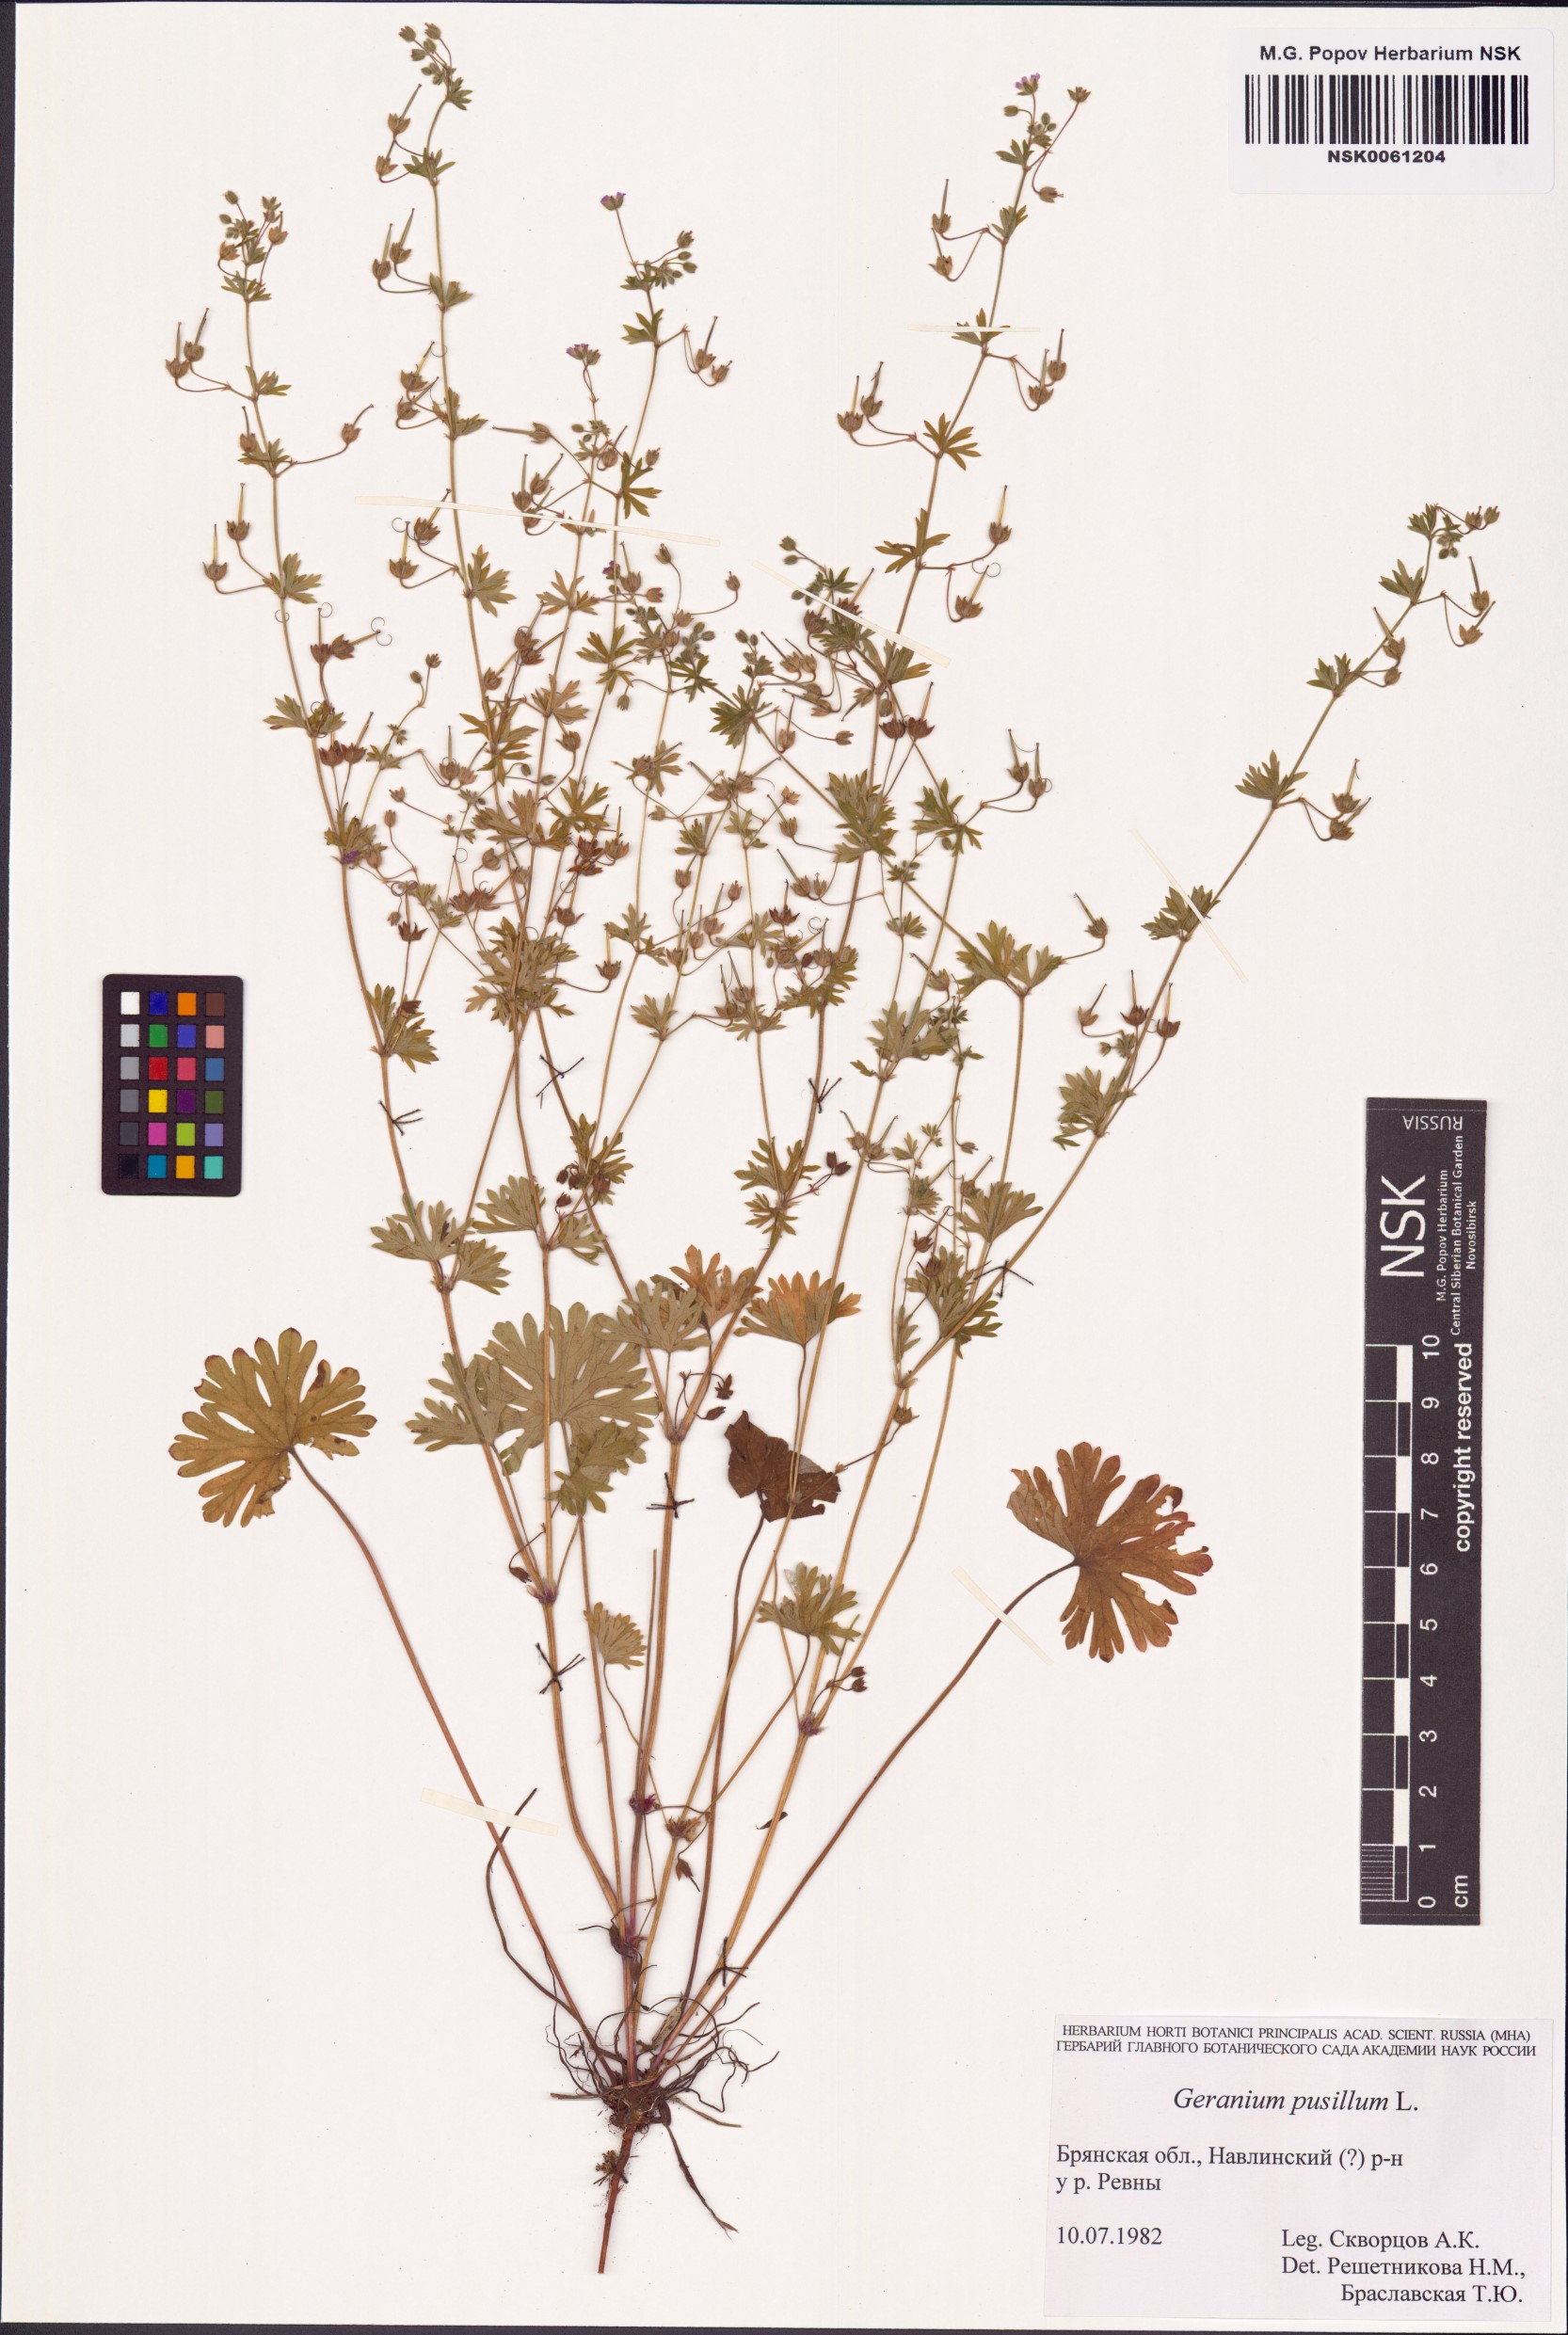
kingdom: Plantae
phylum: Tracheophyta
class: Magnoliopsida
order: Geraniales
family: Geraniaceae
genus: Geranium
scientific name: Geranium pusillum
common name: Small geranium
